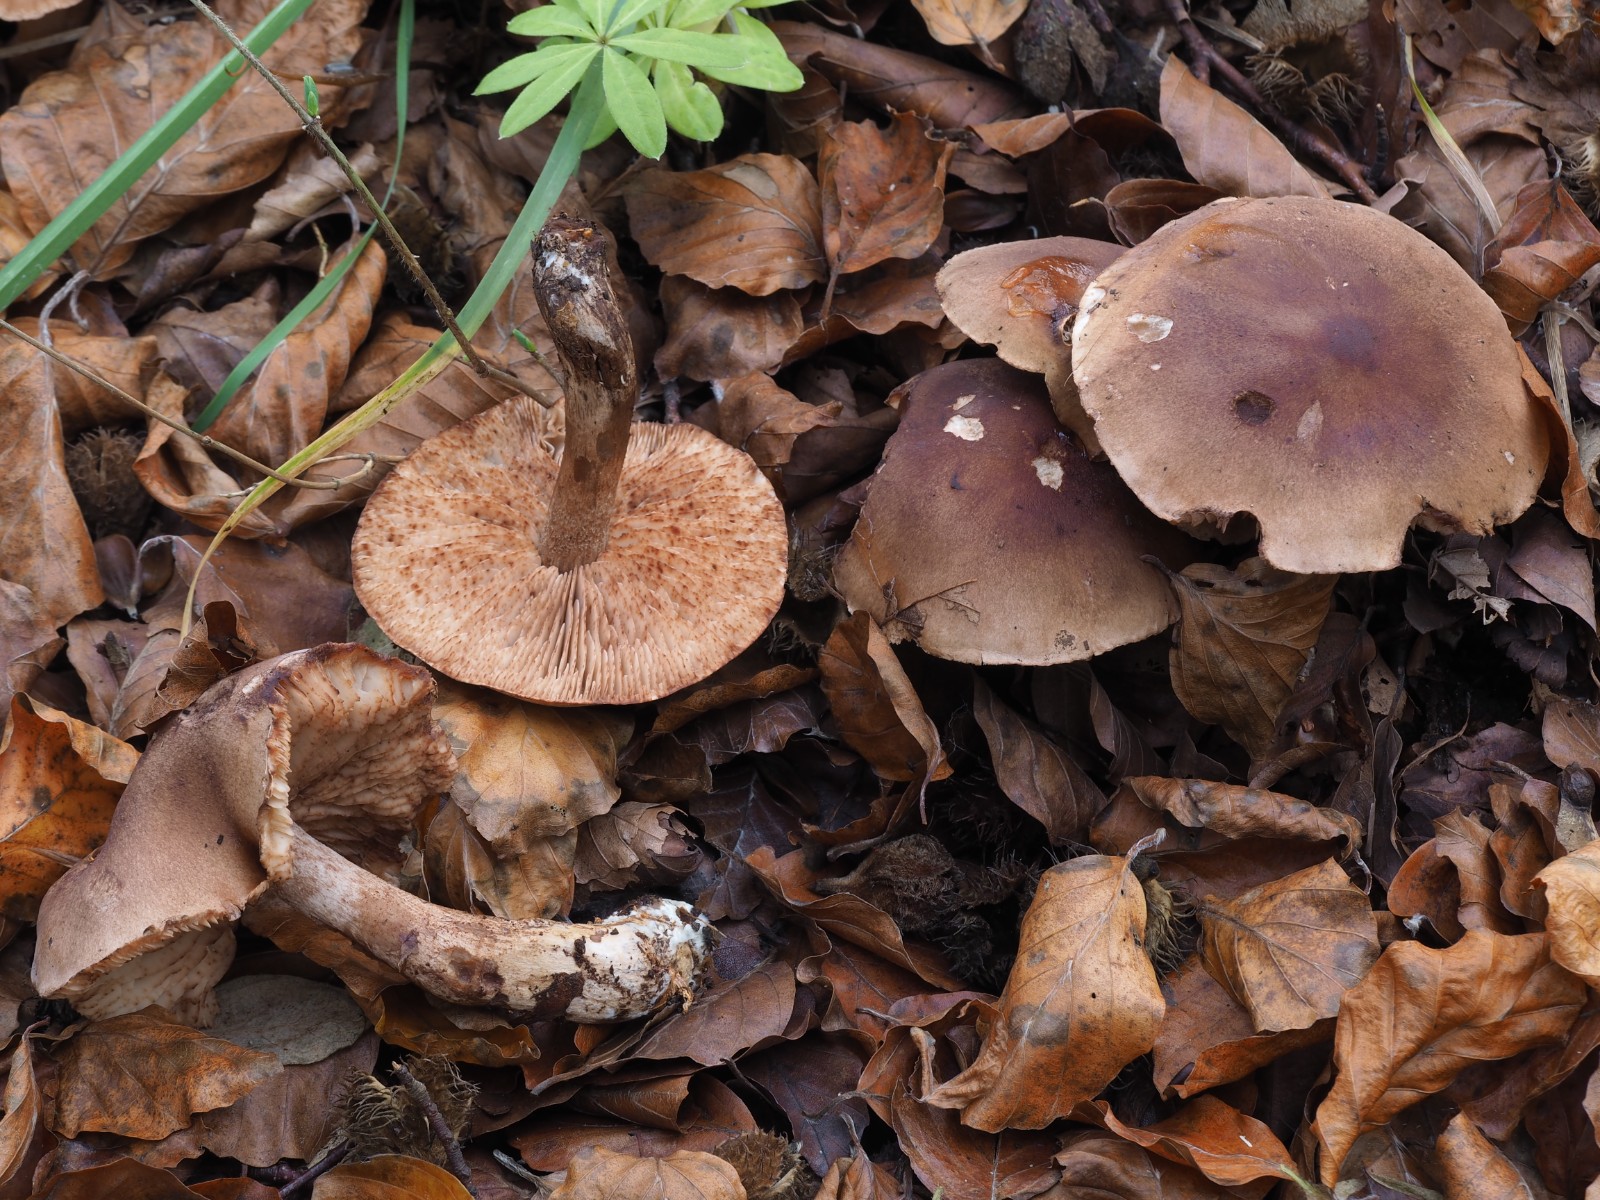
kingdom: Fungi
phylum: Basidiomycota
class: Agaricomycetes
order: Agaricales
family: Tricholomataceae
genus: Tricholoma
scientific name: Tricholoma ustale
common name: sveden ridderhat
